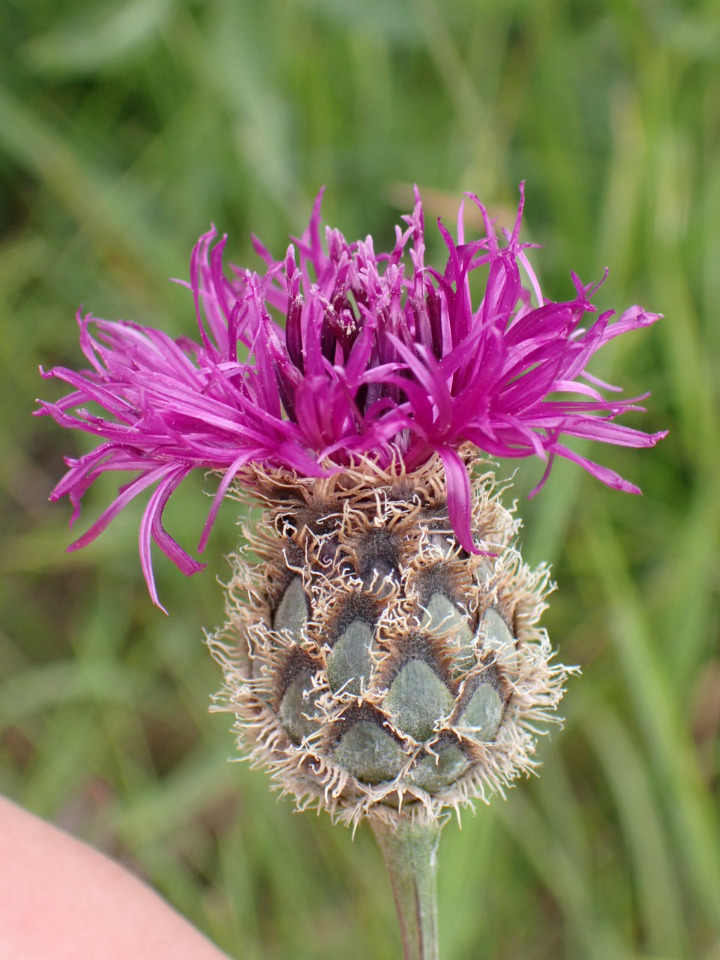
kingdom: Plantae
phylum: Tracheophyta
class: Magnoliopsida
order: Asterales
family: Asteraceae
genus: Centaurea
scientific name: Centaurea scabiosa
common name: Stor knopurt
